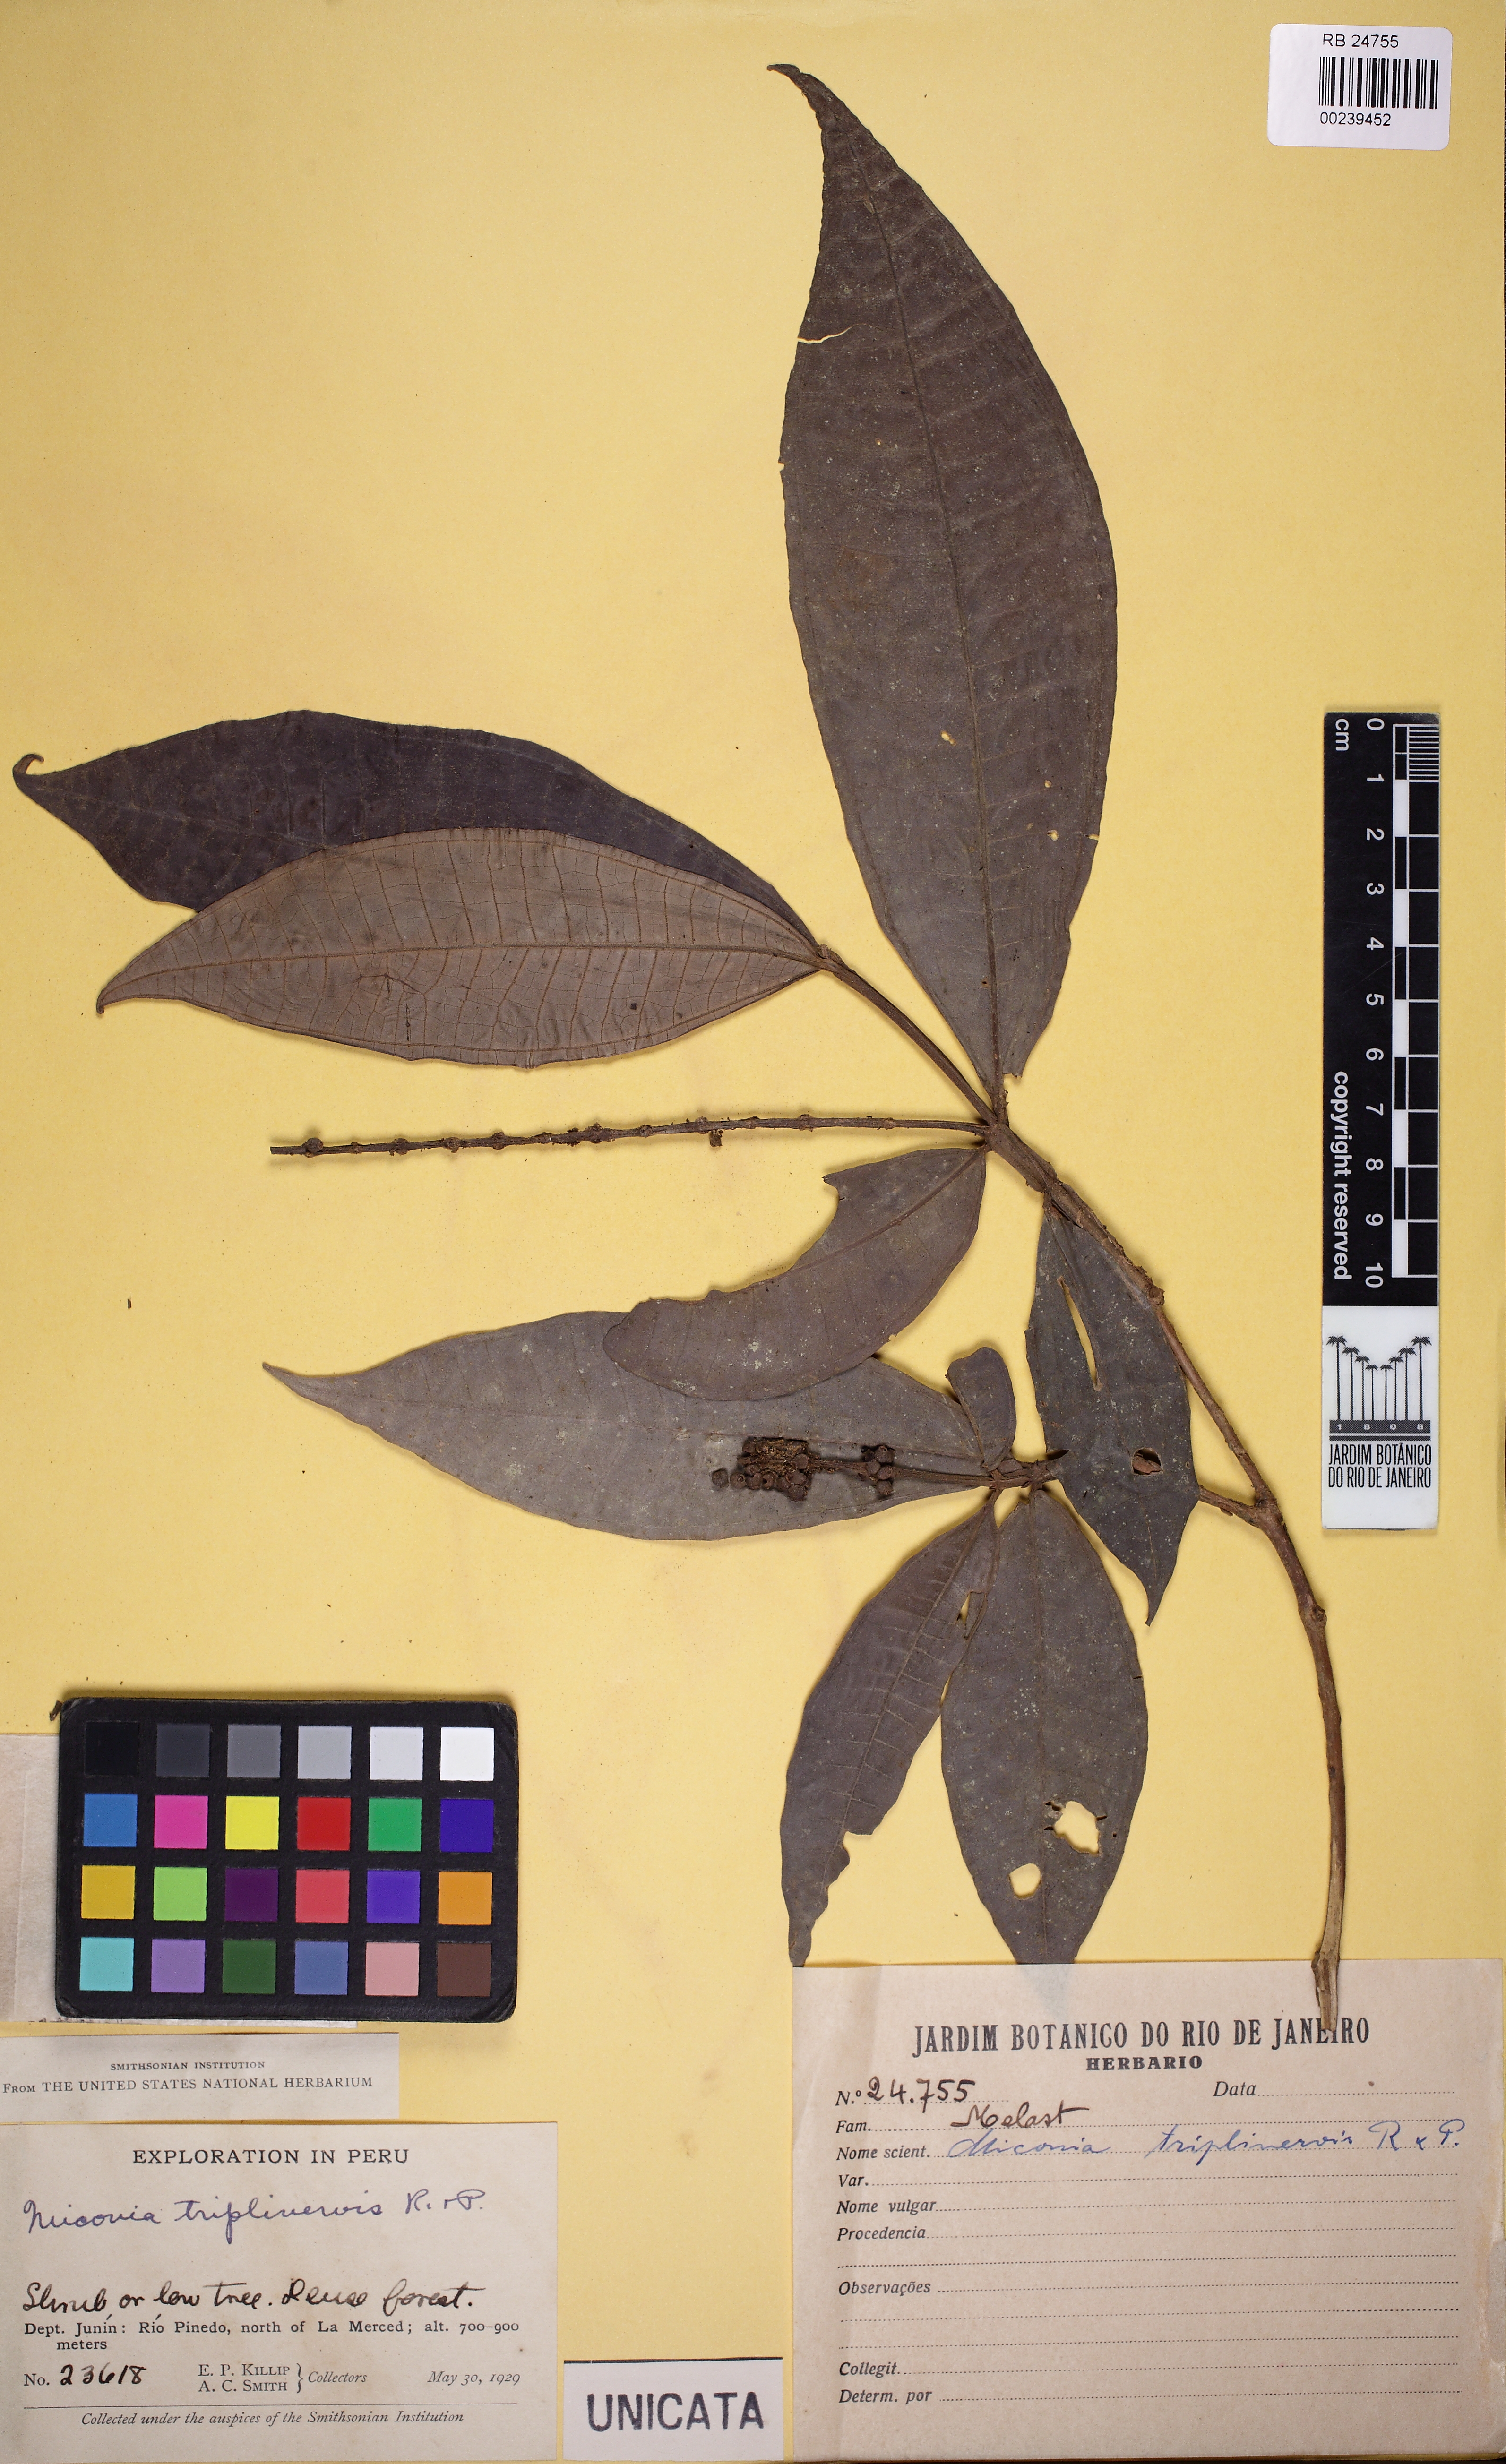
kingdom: Plantae
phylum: Tracheophyta
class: Magnoliopsida
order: Myrtales
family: Melastomataceae
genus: Miconia
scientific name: Miconia triplinervis
